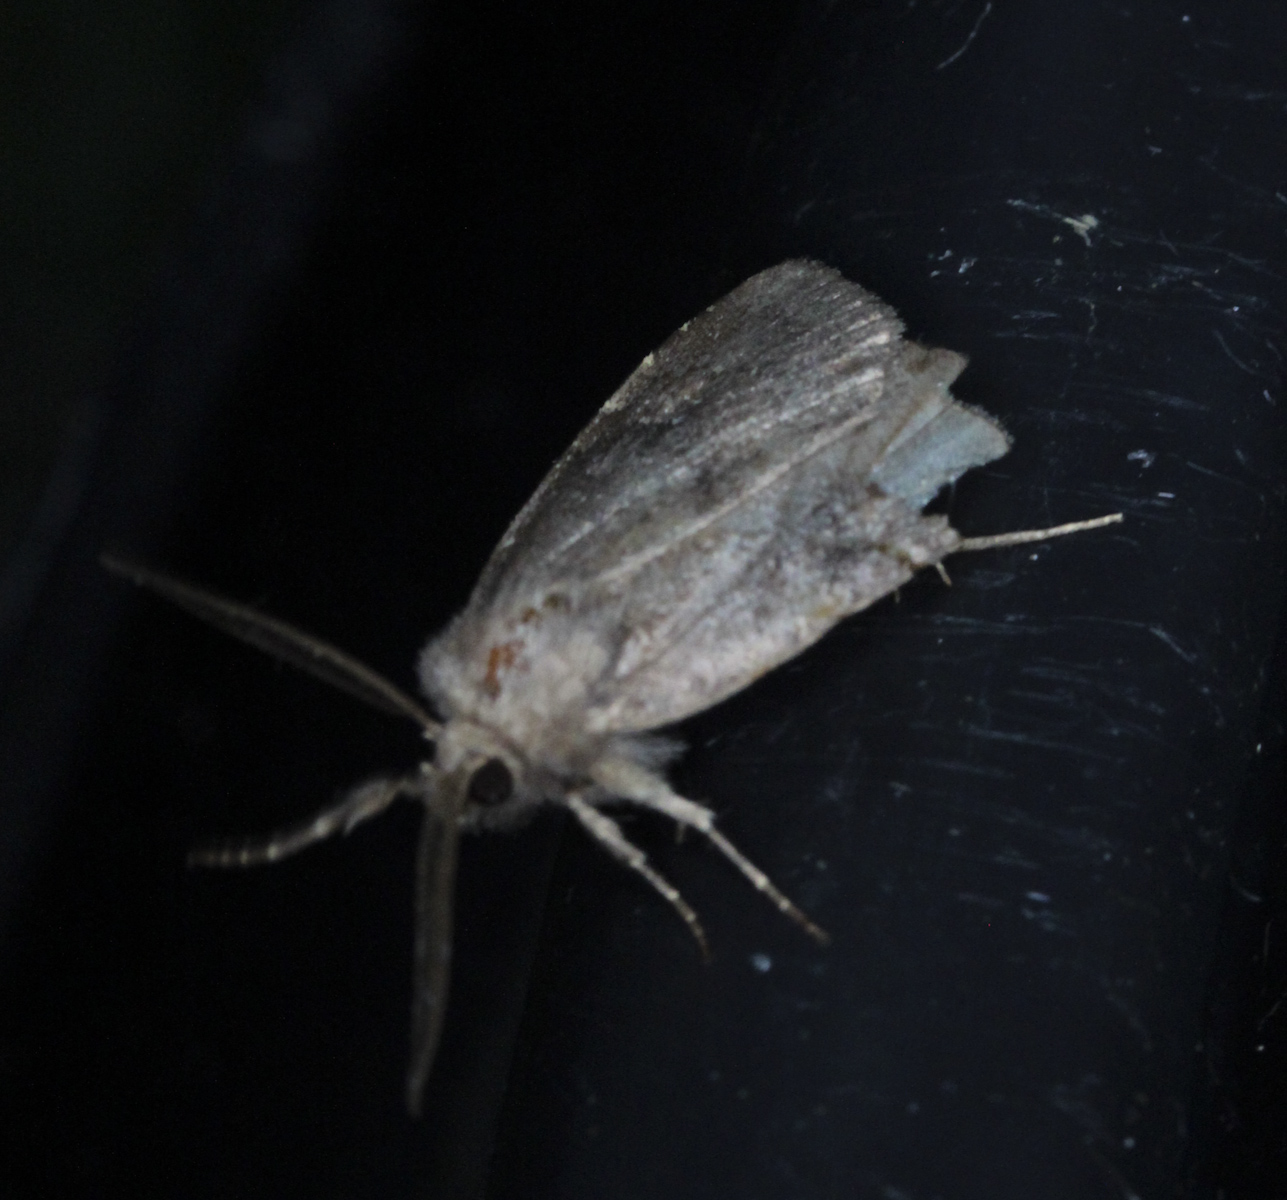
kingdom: Animalia
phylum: Arthropoda
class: Insecta
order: Lepidoptera
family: Noctuidae
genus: Charanyca
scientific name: Charanyca ferruginea
